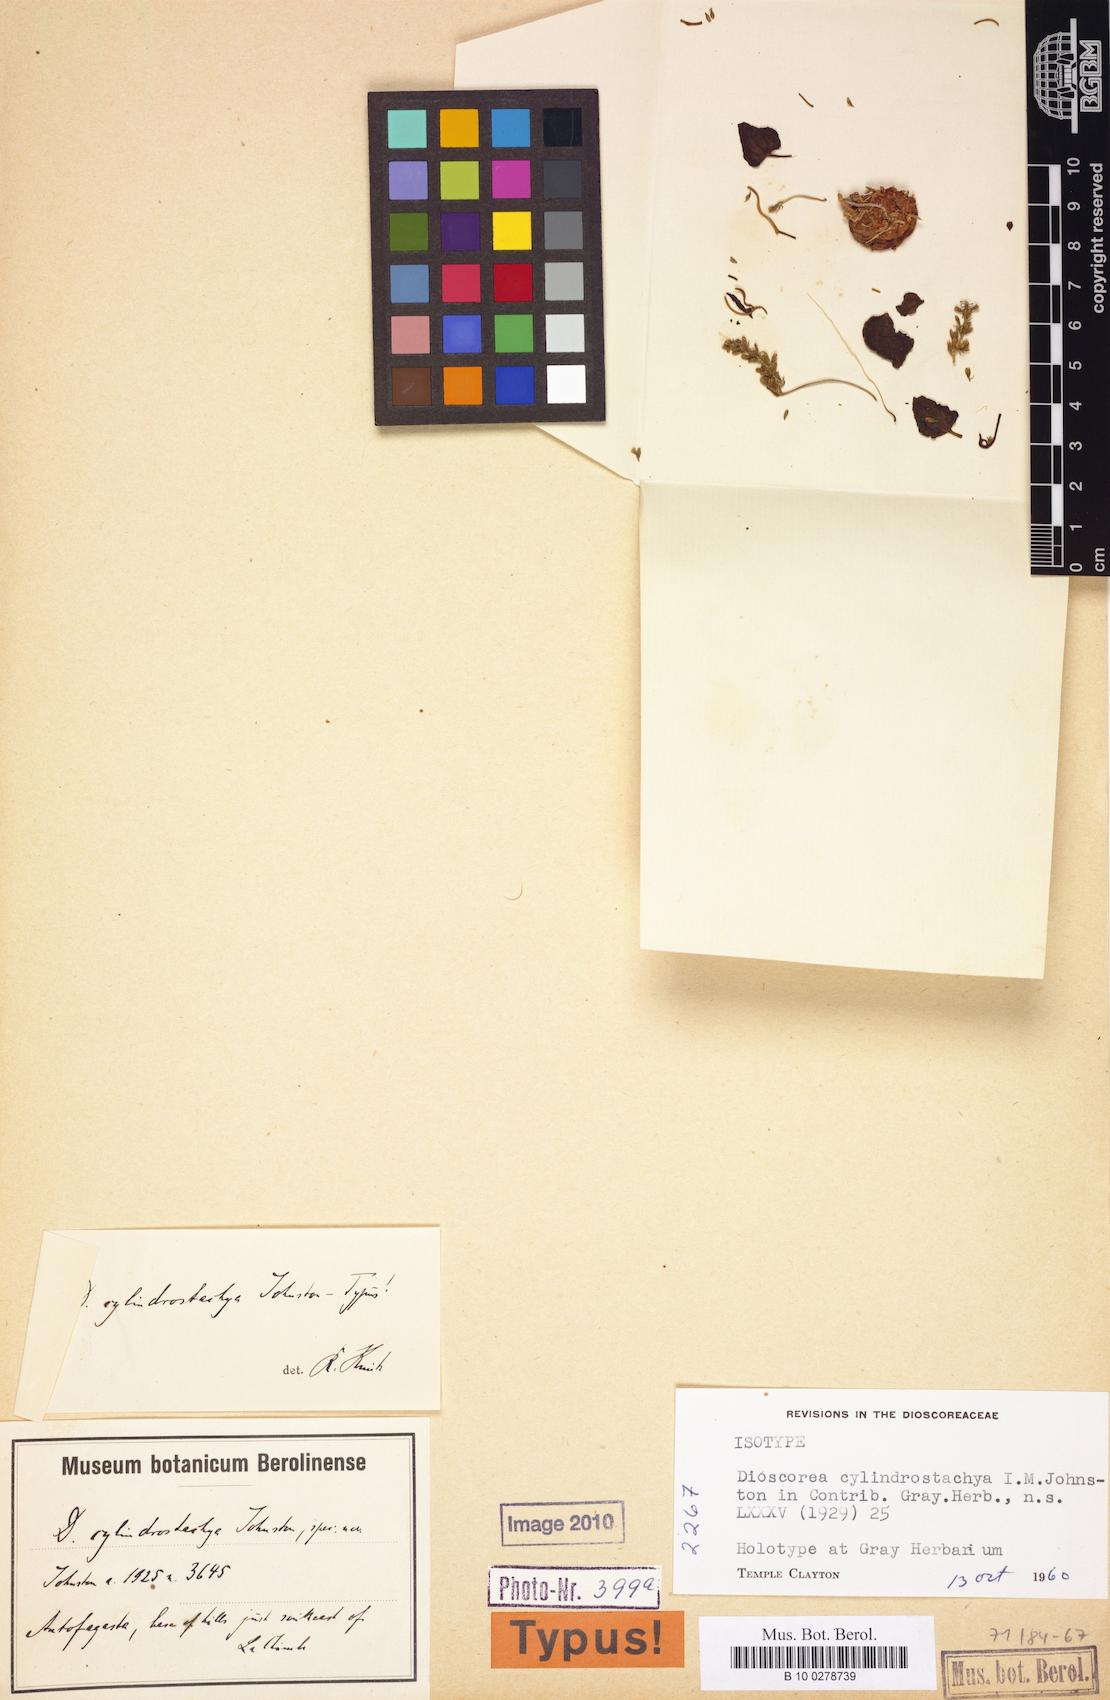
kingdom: Plantae
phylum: Tracheophyta
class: Liliopsida
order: Dioscoreales
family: Dioscoreaceae
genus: Dioscorea
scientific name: Dioscorea fastigiata
